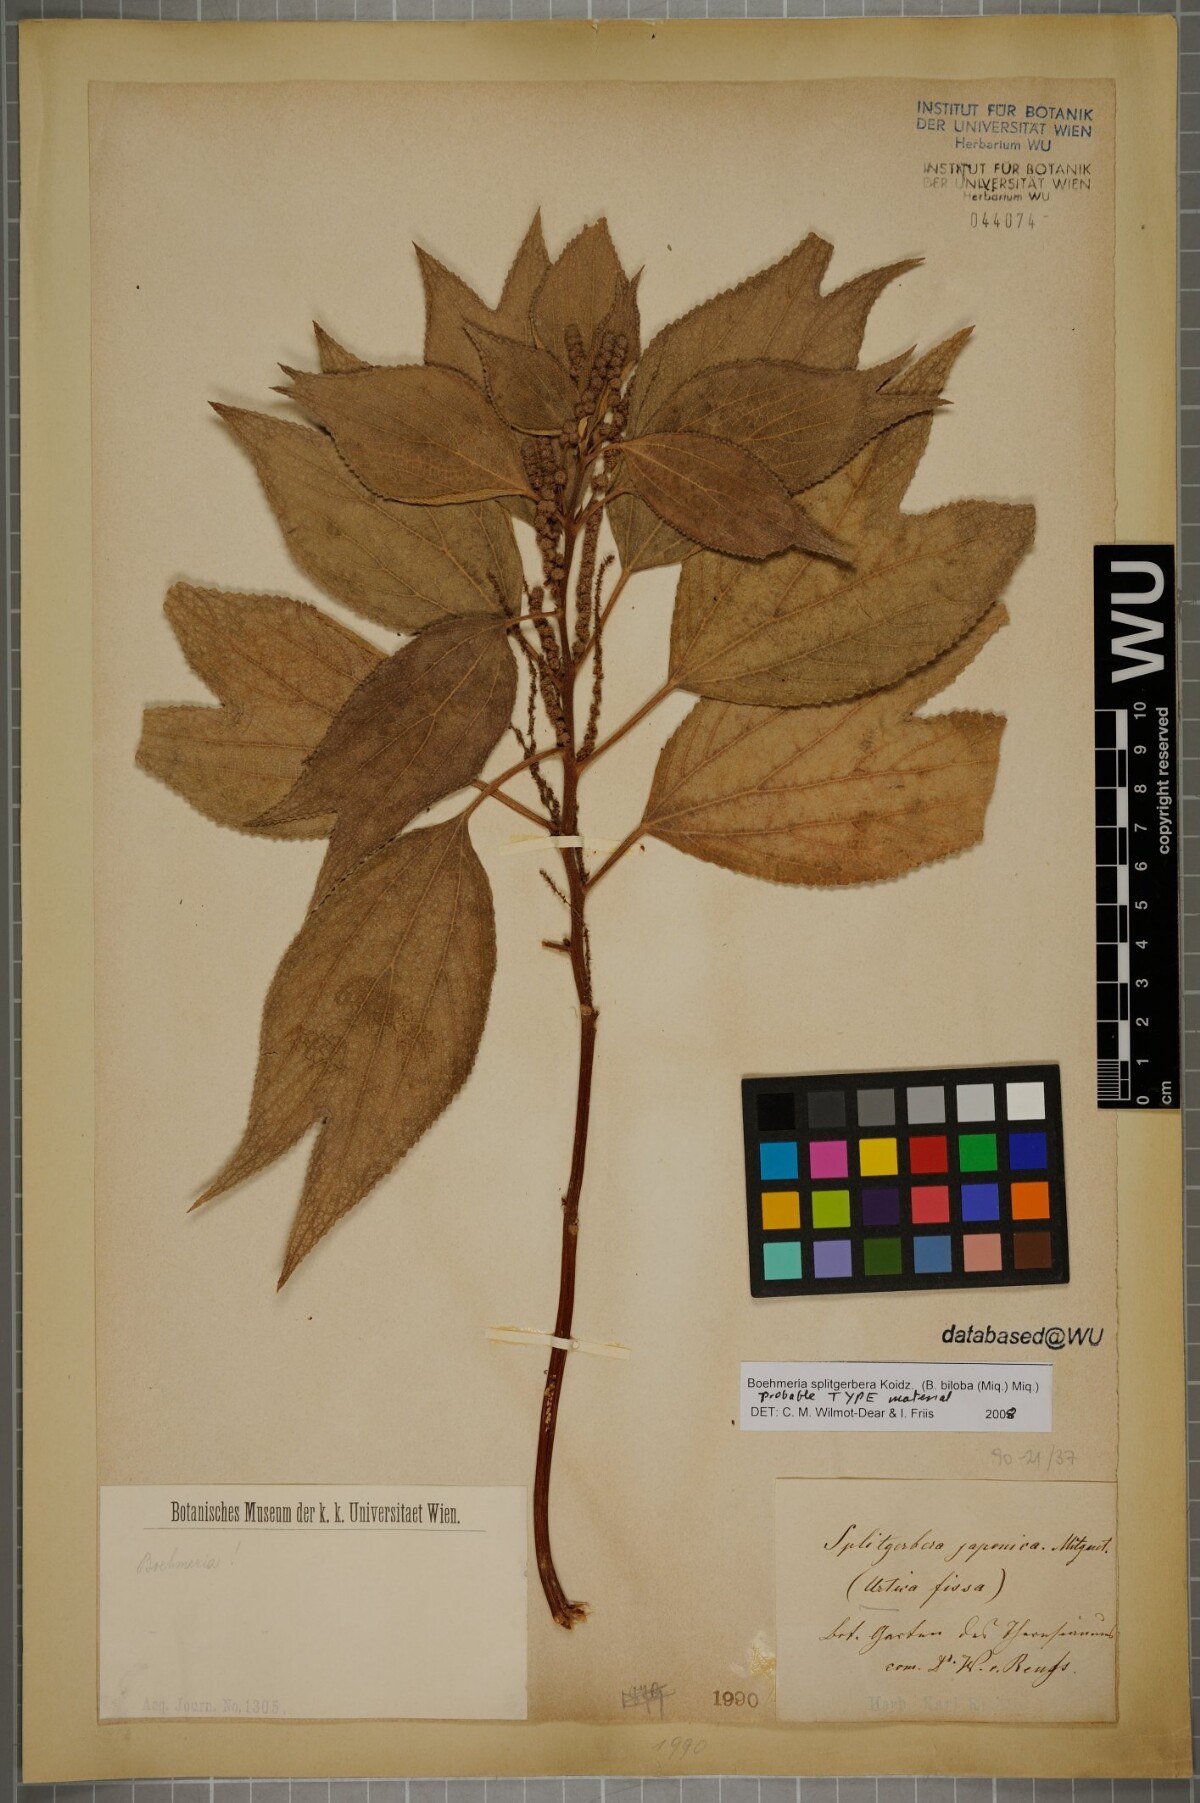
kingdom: Plantae
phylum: Tracheophyta
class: Magnoliopsida
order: Rosales
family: Urticaceae
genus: Boehmeria
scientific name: Boehmeria splitgerbera
